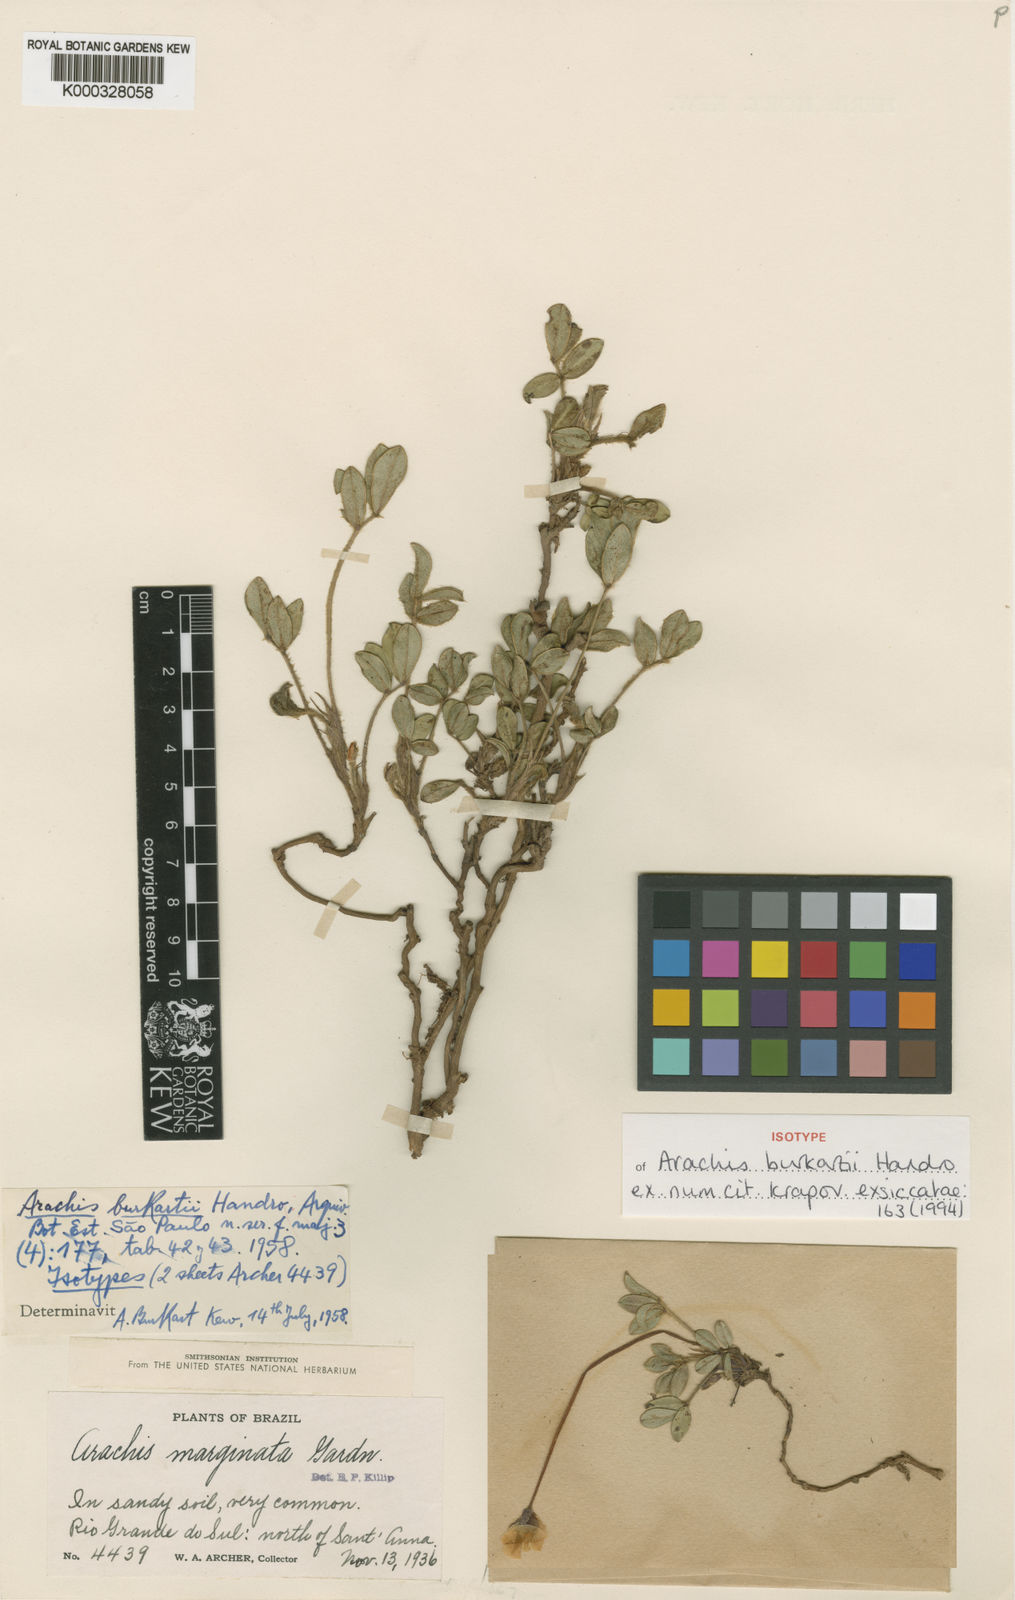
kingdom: Plantae
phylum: Tracheophyta
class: Magnoliopsida
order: Fabales
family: Fabaceae
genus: Arachis
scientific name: Arachis burkartii
